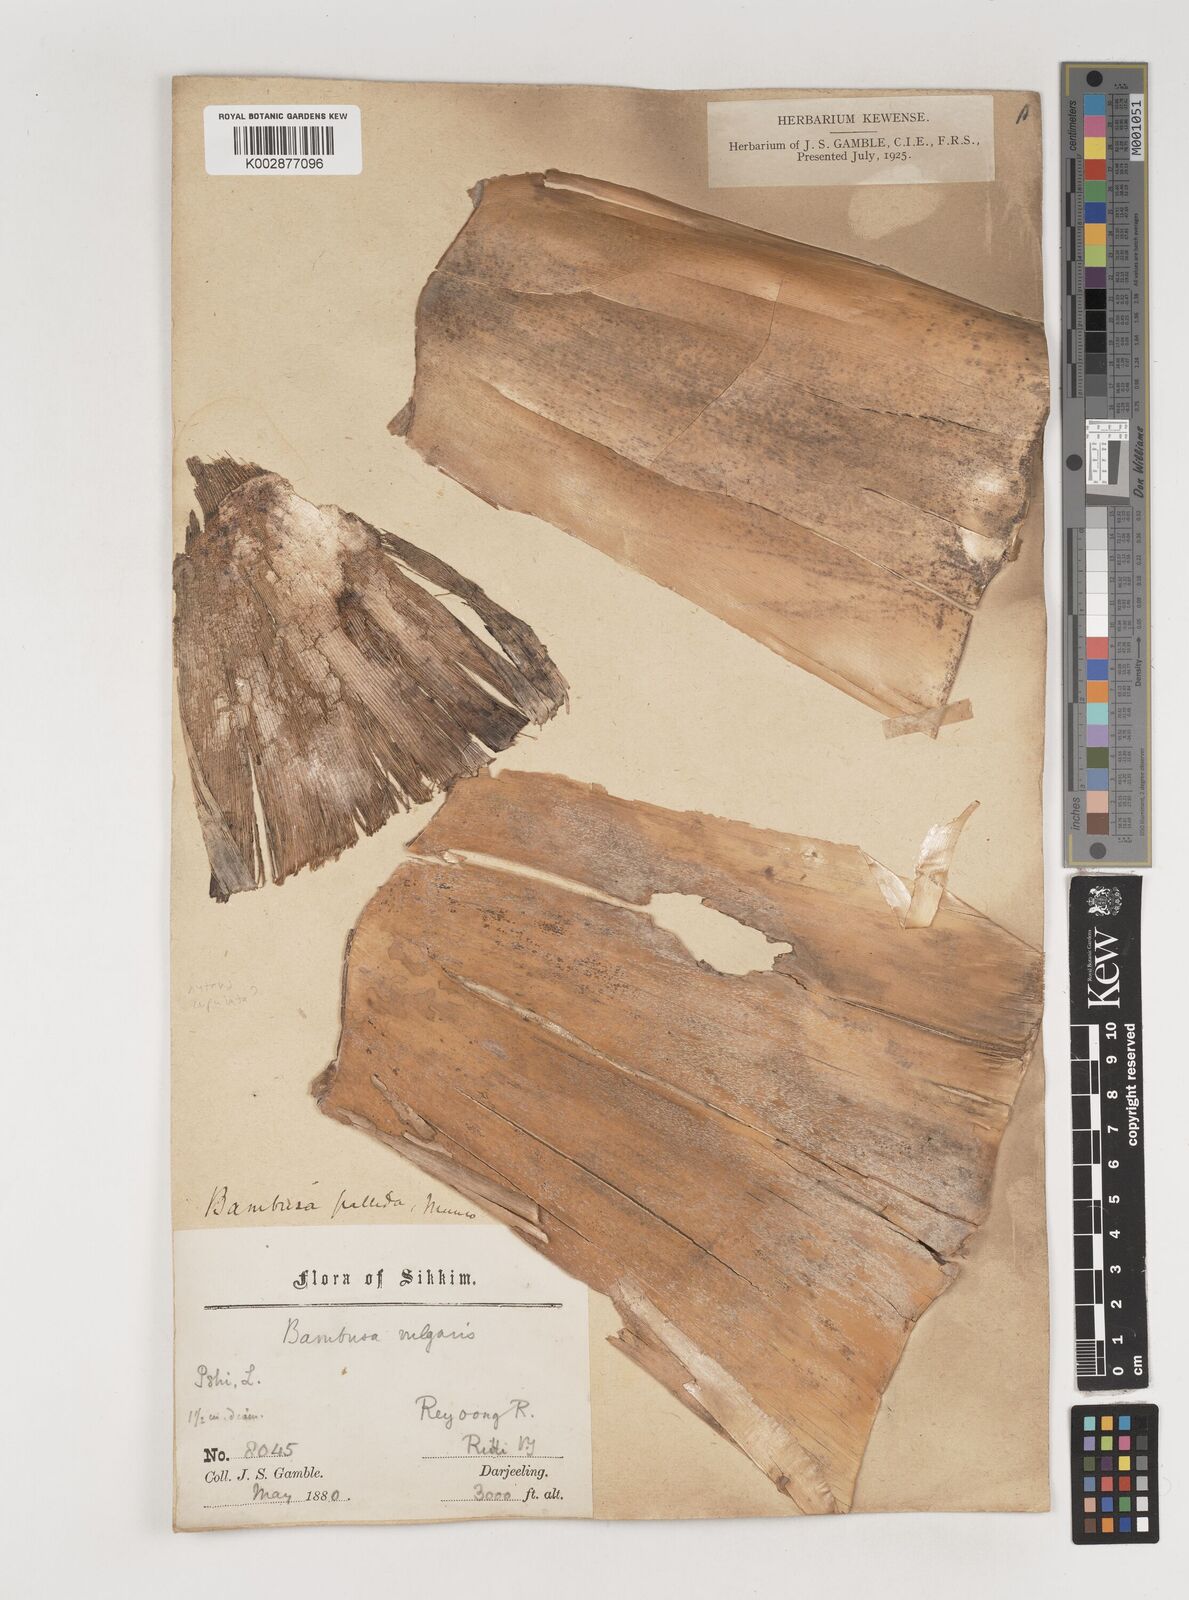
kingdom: Plantae
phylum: Tracheophyta
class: Liliopsida
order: Poales
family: Poaceae
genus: Bambusa
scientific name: Bambusa
